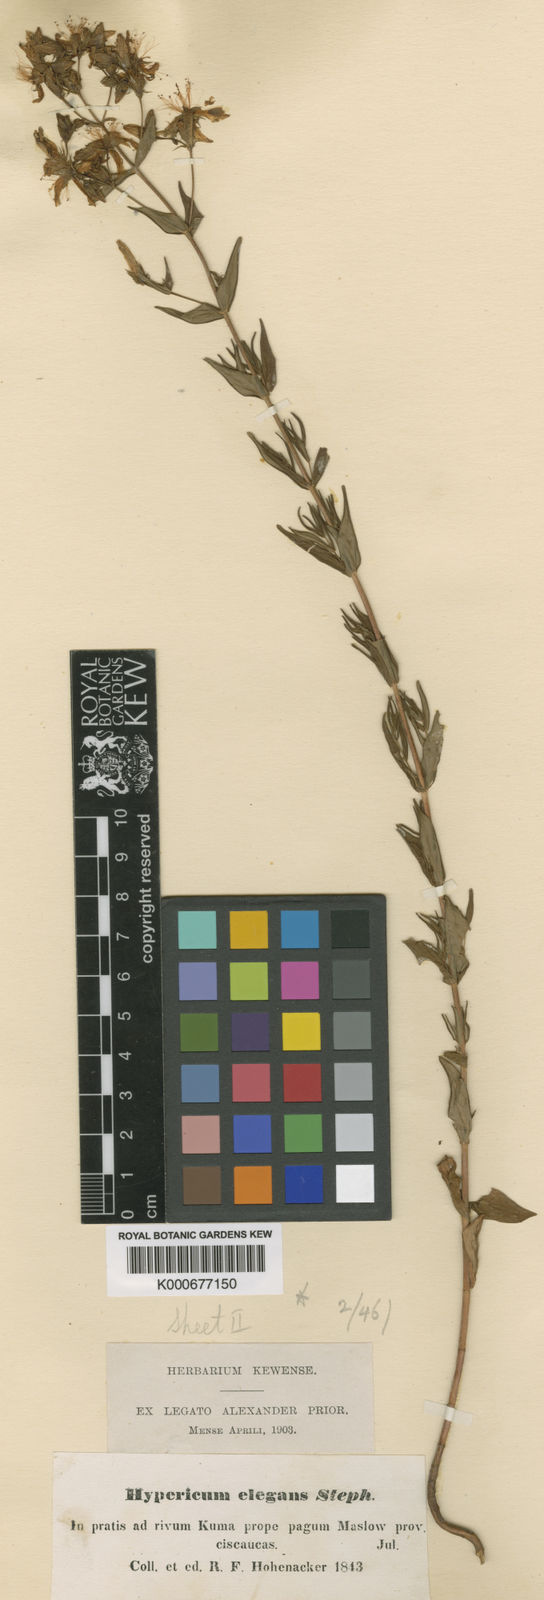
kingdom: Plantae
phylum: Tracheophyta
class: Magnoliopsida
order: Malpighiales
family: Hypericaceae
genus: Hypericum
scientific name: Hypericum
